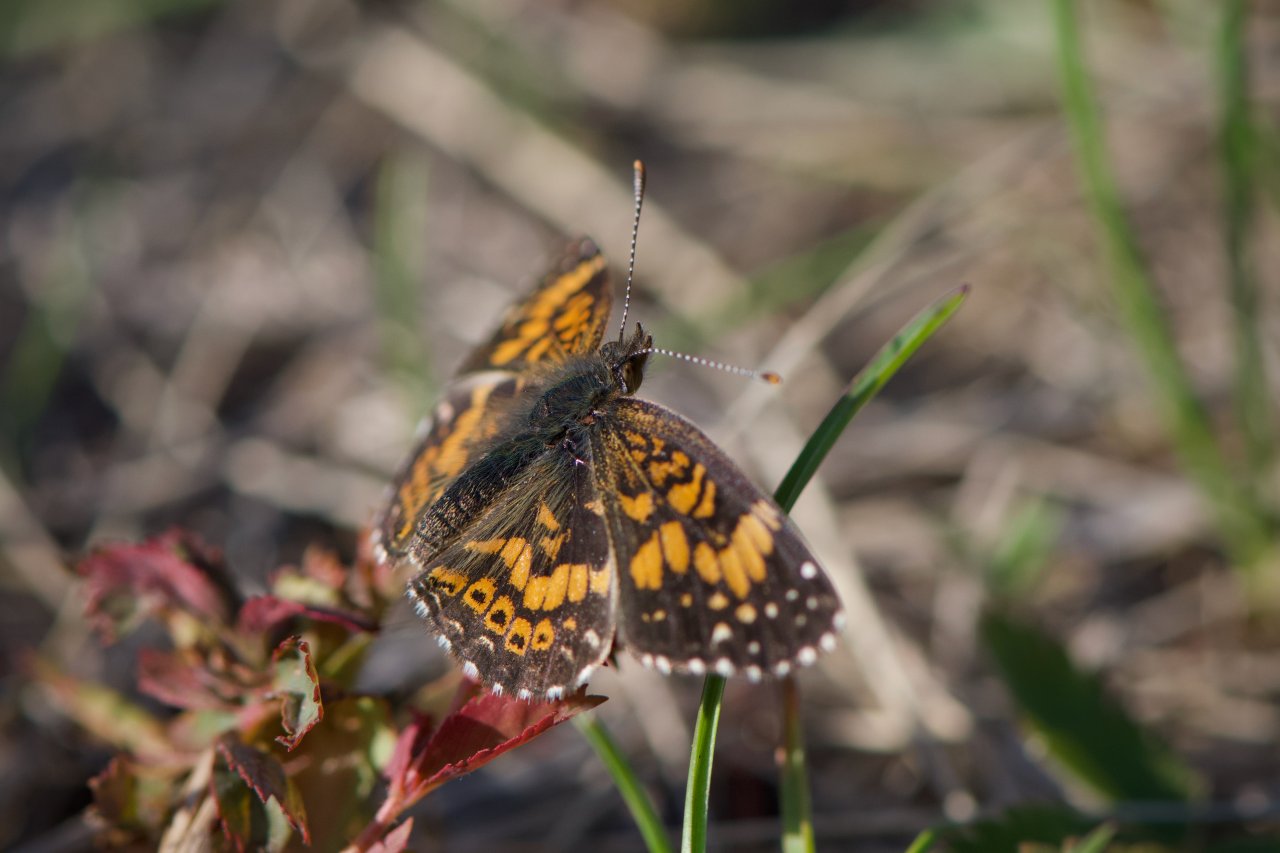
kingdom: Animalia
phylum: Arthropoda
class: Insecta
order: Lepidoptera
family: Nymphalidae
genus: Chlosyne
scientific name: Chlosyne gorgone
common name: Gorgone Checkerspot
